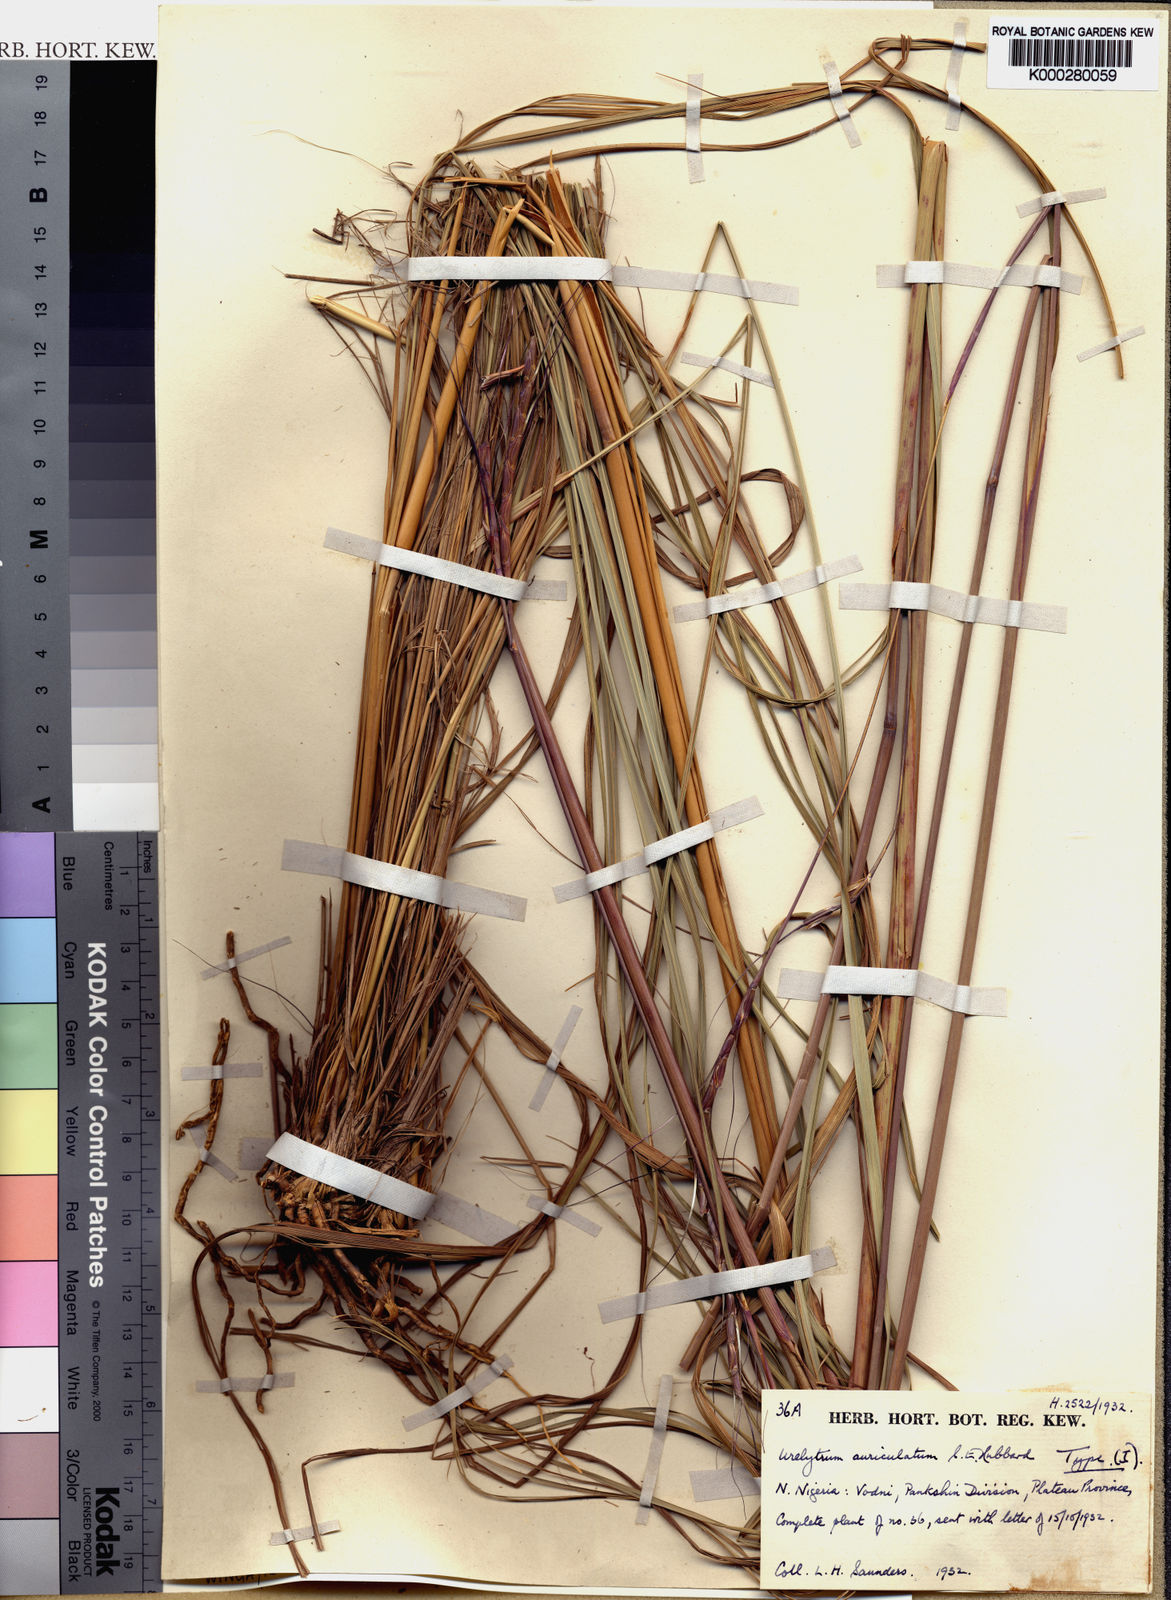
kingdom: Plantae
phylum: Tracheophyta
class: Liliopsida
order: Poales
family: Poaceae
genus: Urelytrum
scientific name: Urelytrum auriculatum
